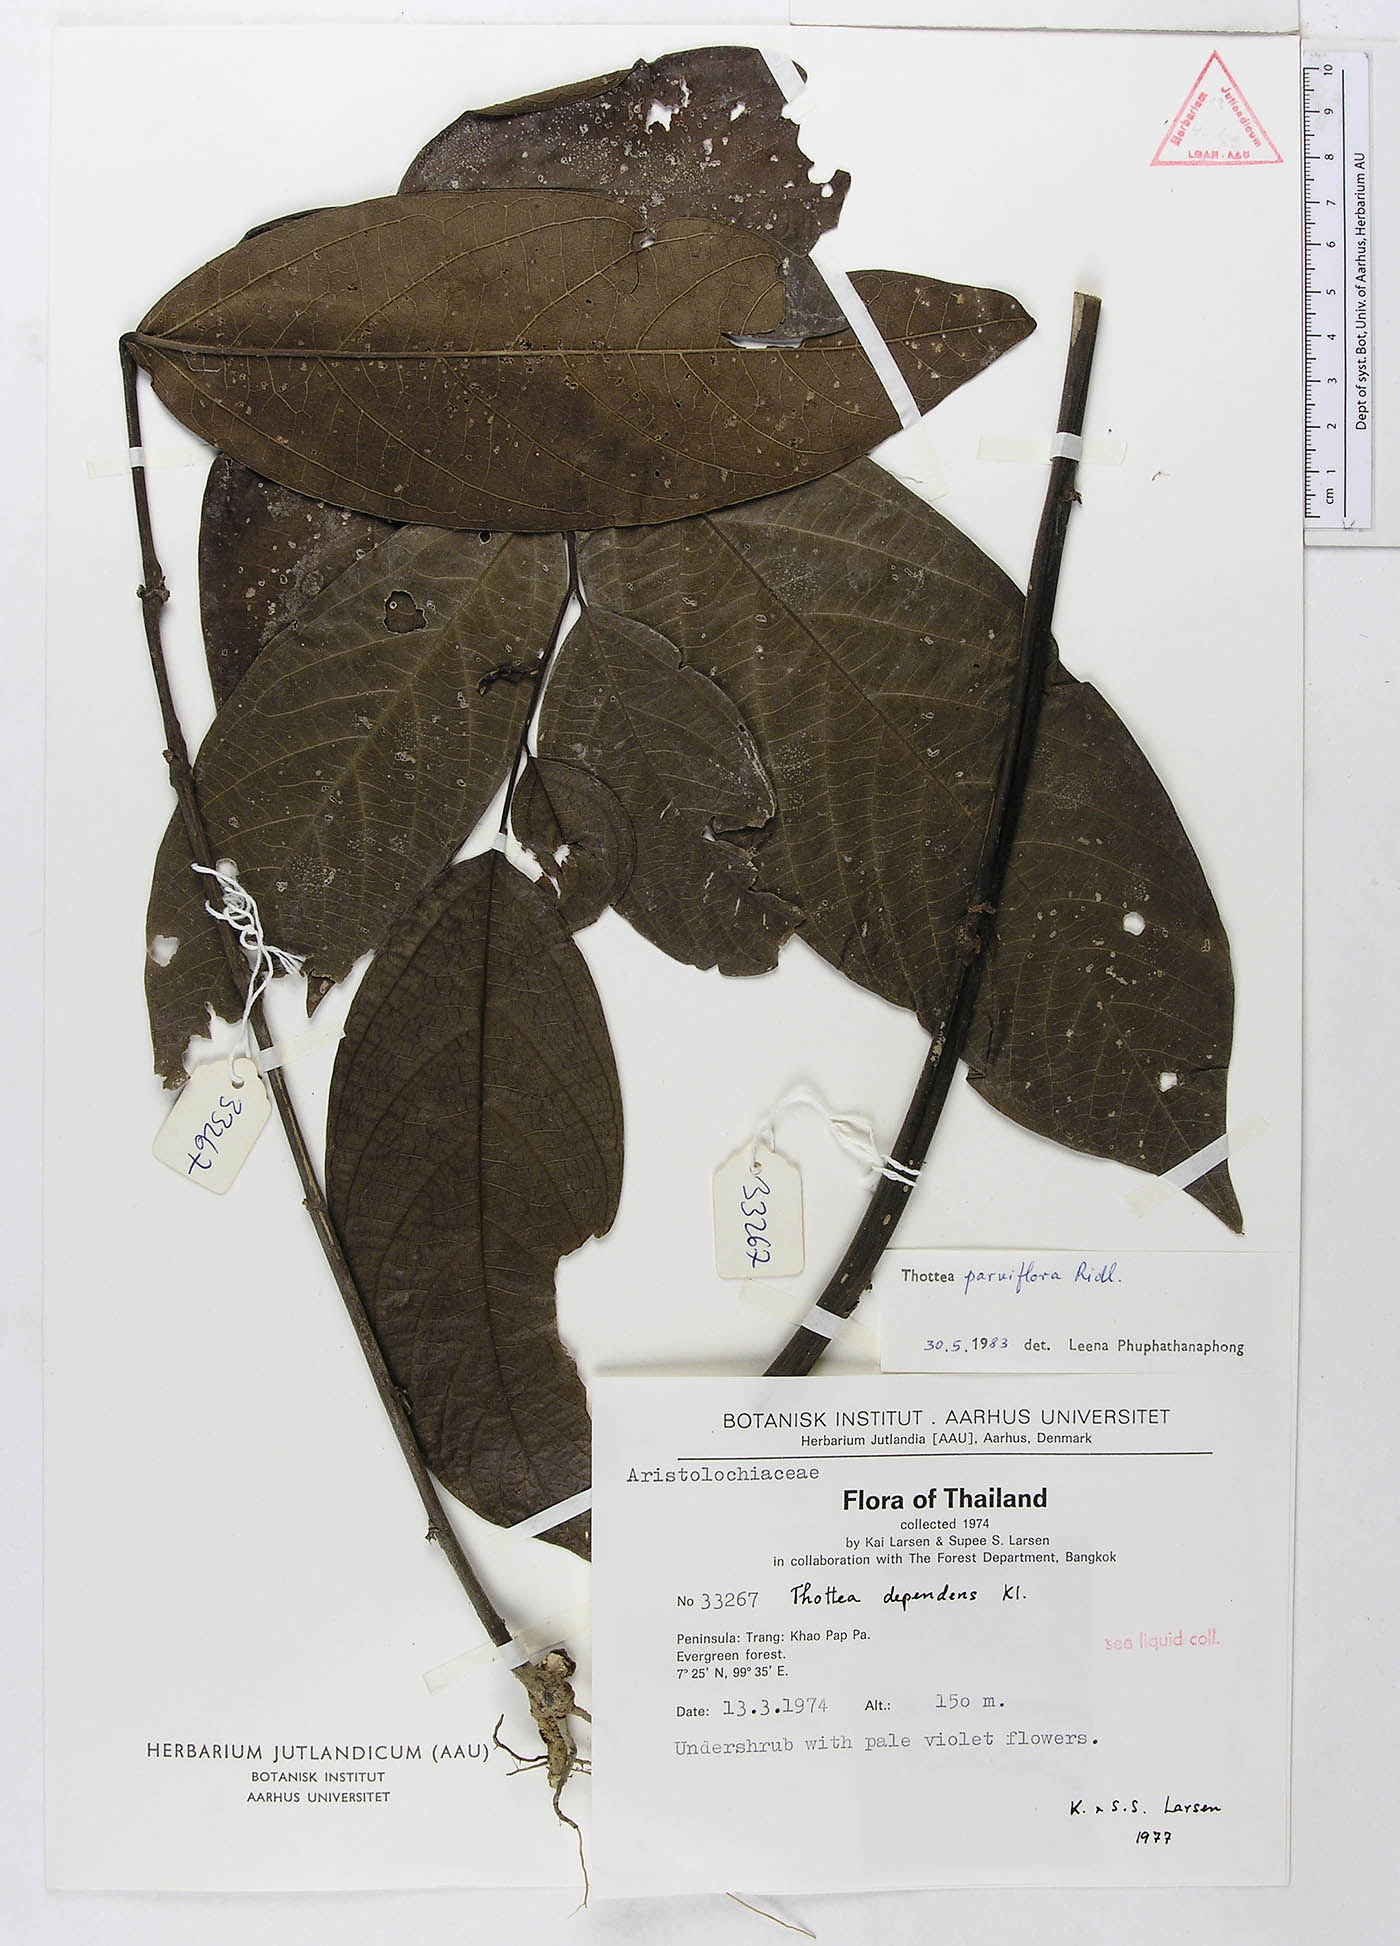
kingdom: Plantae
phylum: Tracheophyta
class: Magnoliopsida
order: Piperales
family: Aristolochiaceae
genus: Thottea
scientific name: Thottea parviflora
